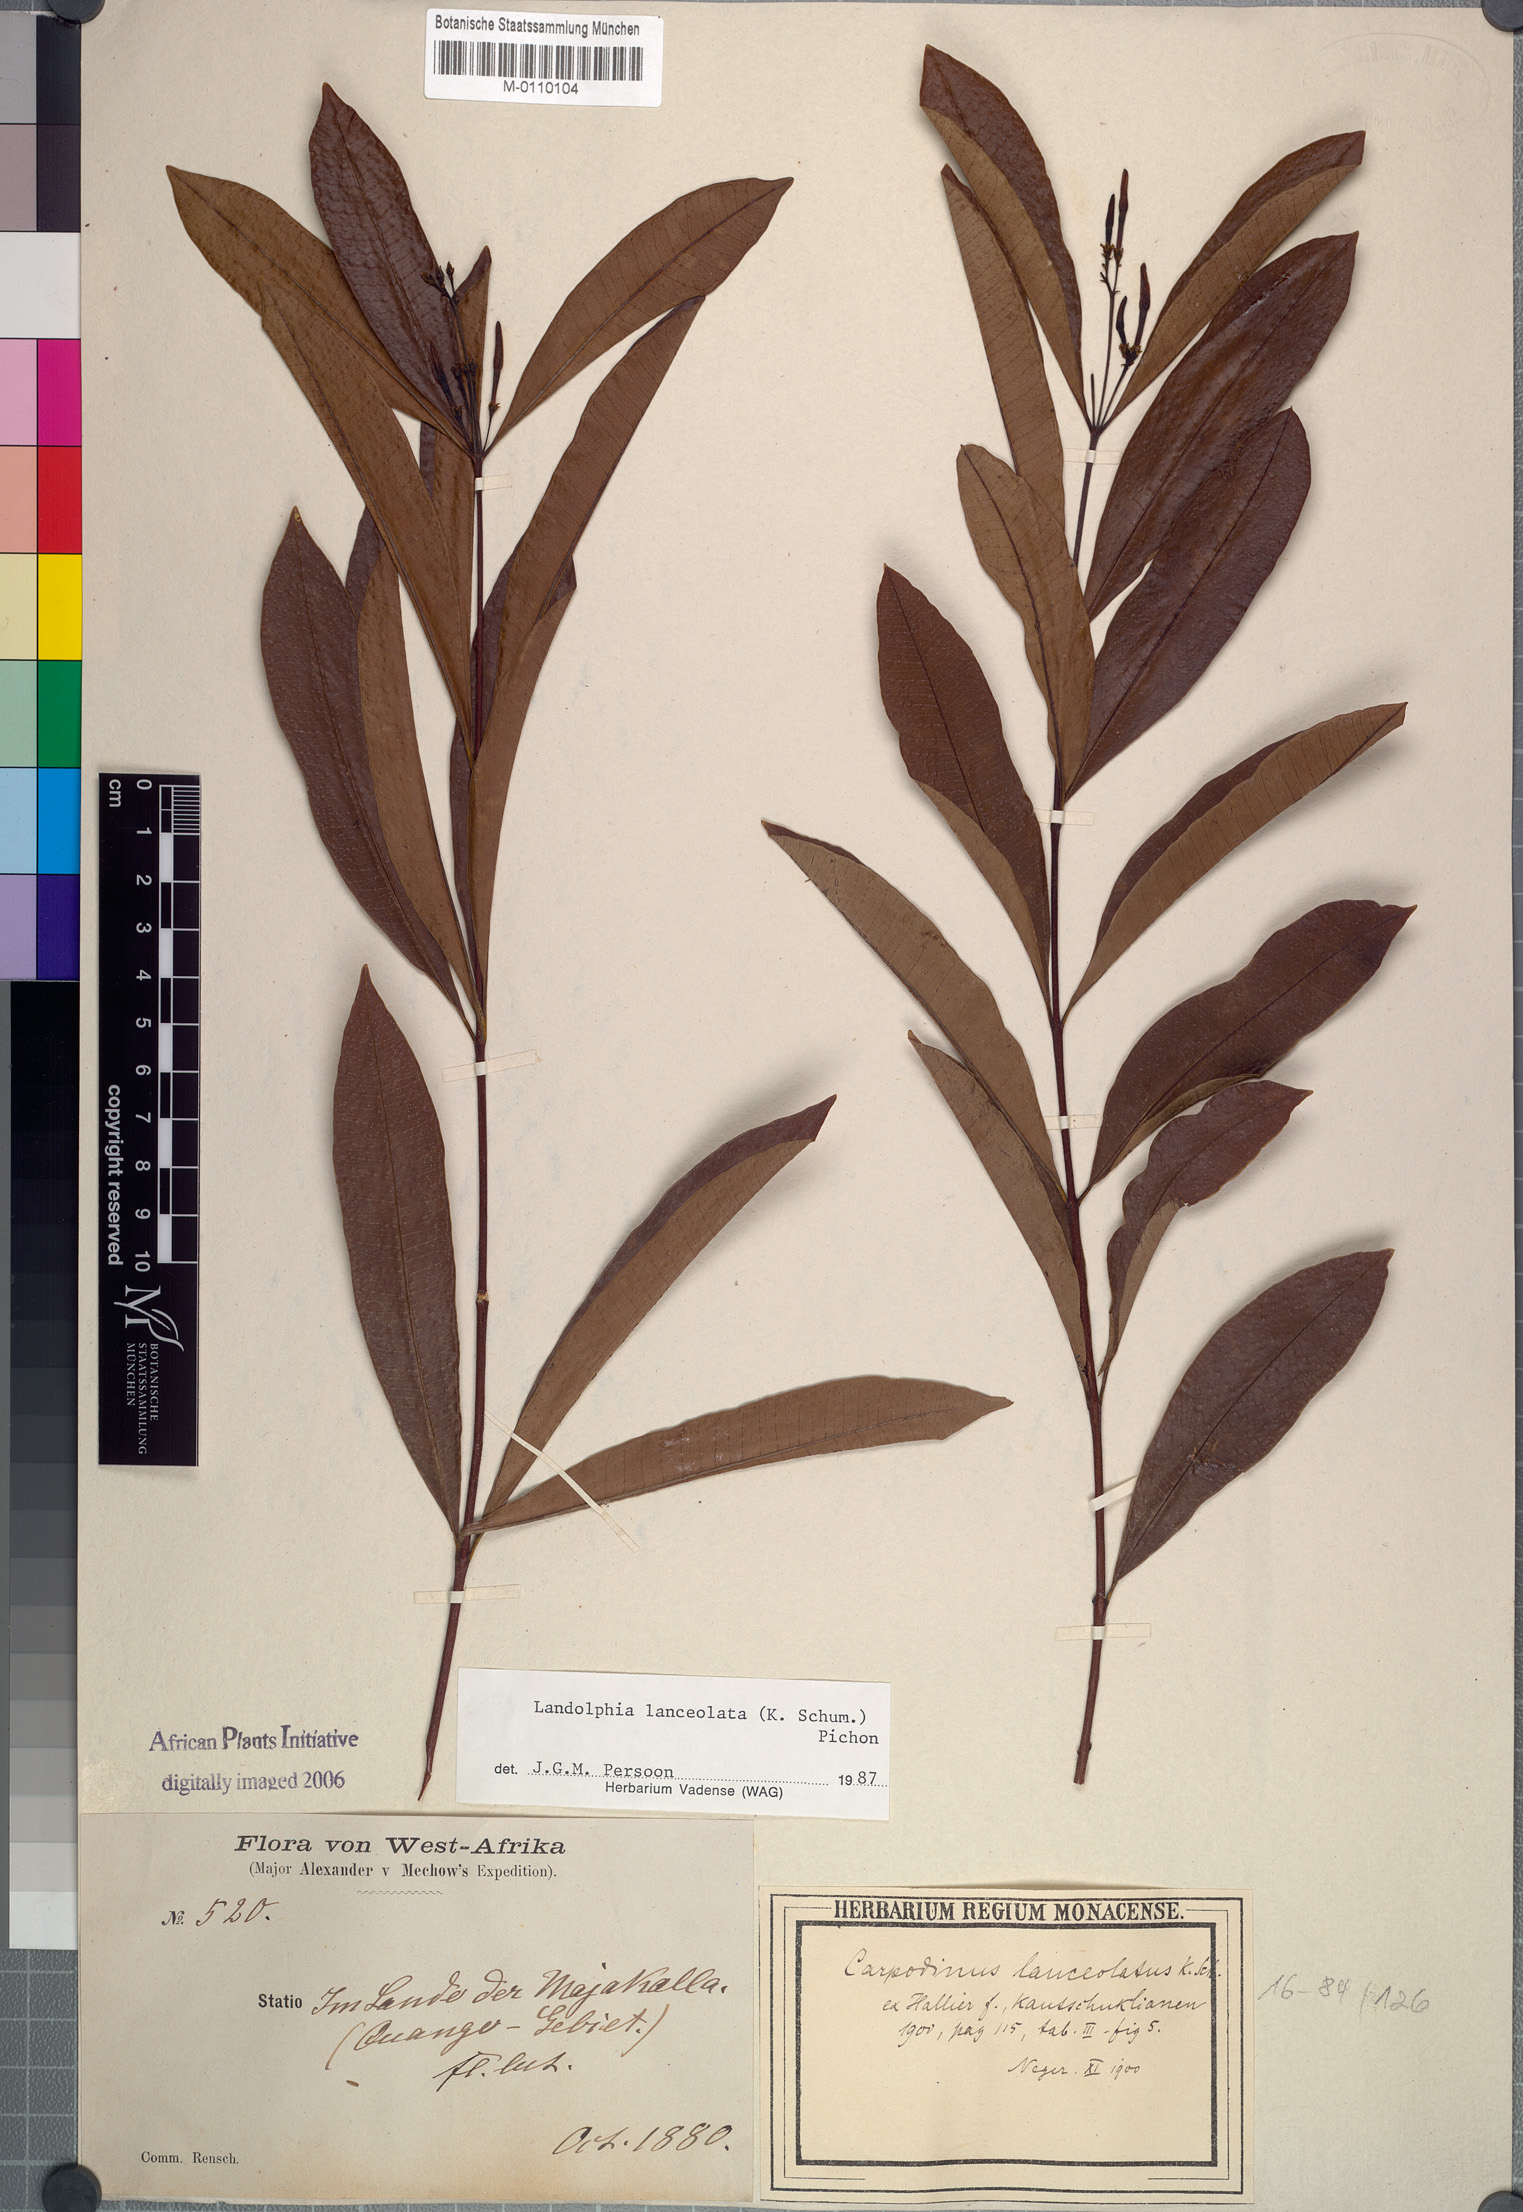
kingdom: Plantae
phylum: Tracheophyta
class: Magnoliopsida
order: Gentianales
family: Apocynaceae
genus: Landolphia
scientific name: Landolphia lanceolata
